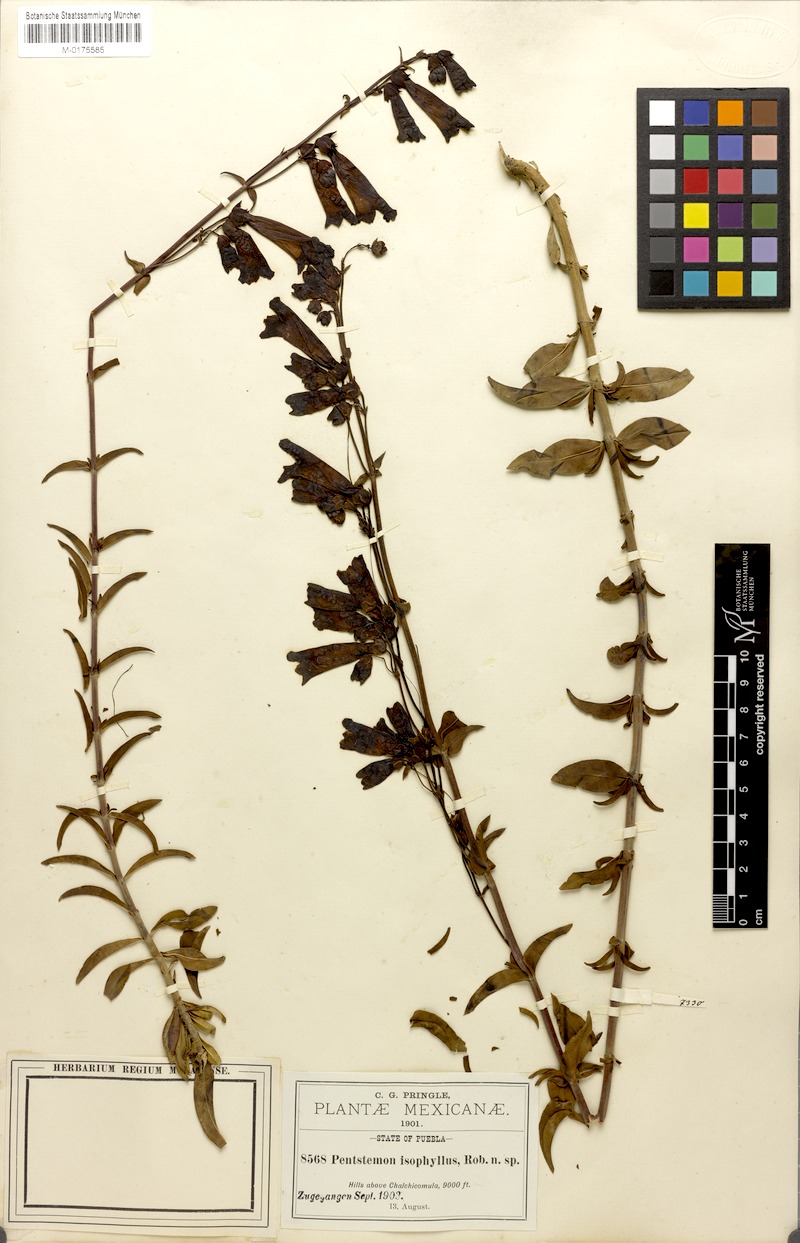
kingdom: Plantae
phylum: Tracheophyta
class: Magnoliopsida
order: Lamiales
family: Plantaginaceae
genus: Penstemon
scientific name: Penstemon isophyllus
